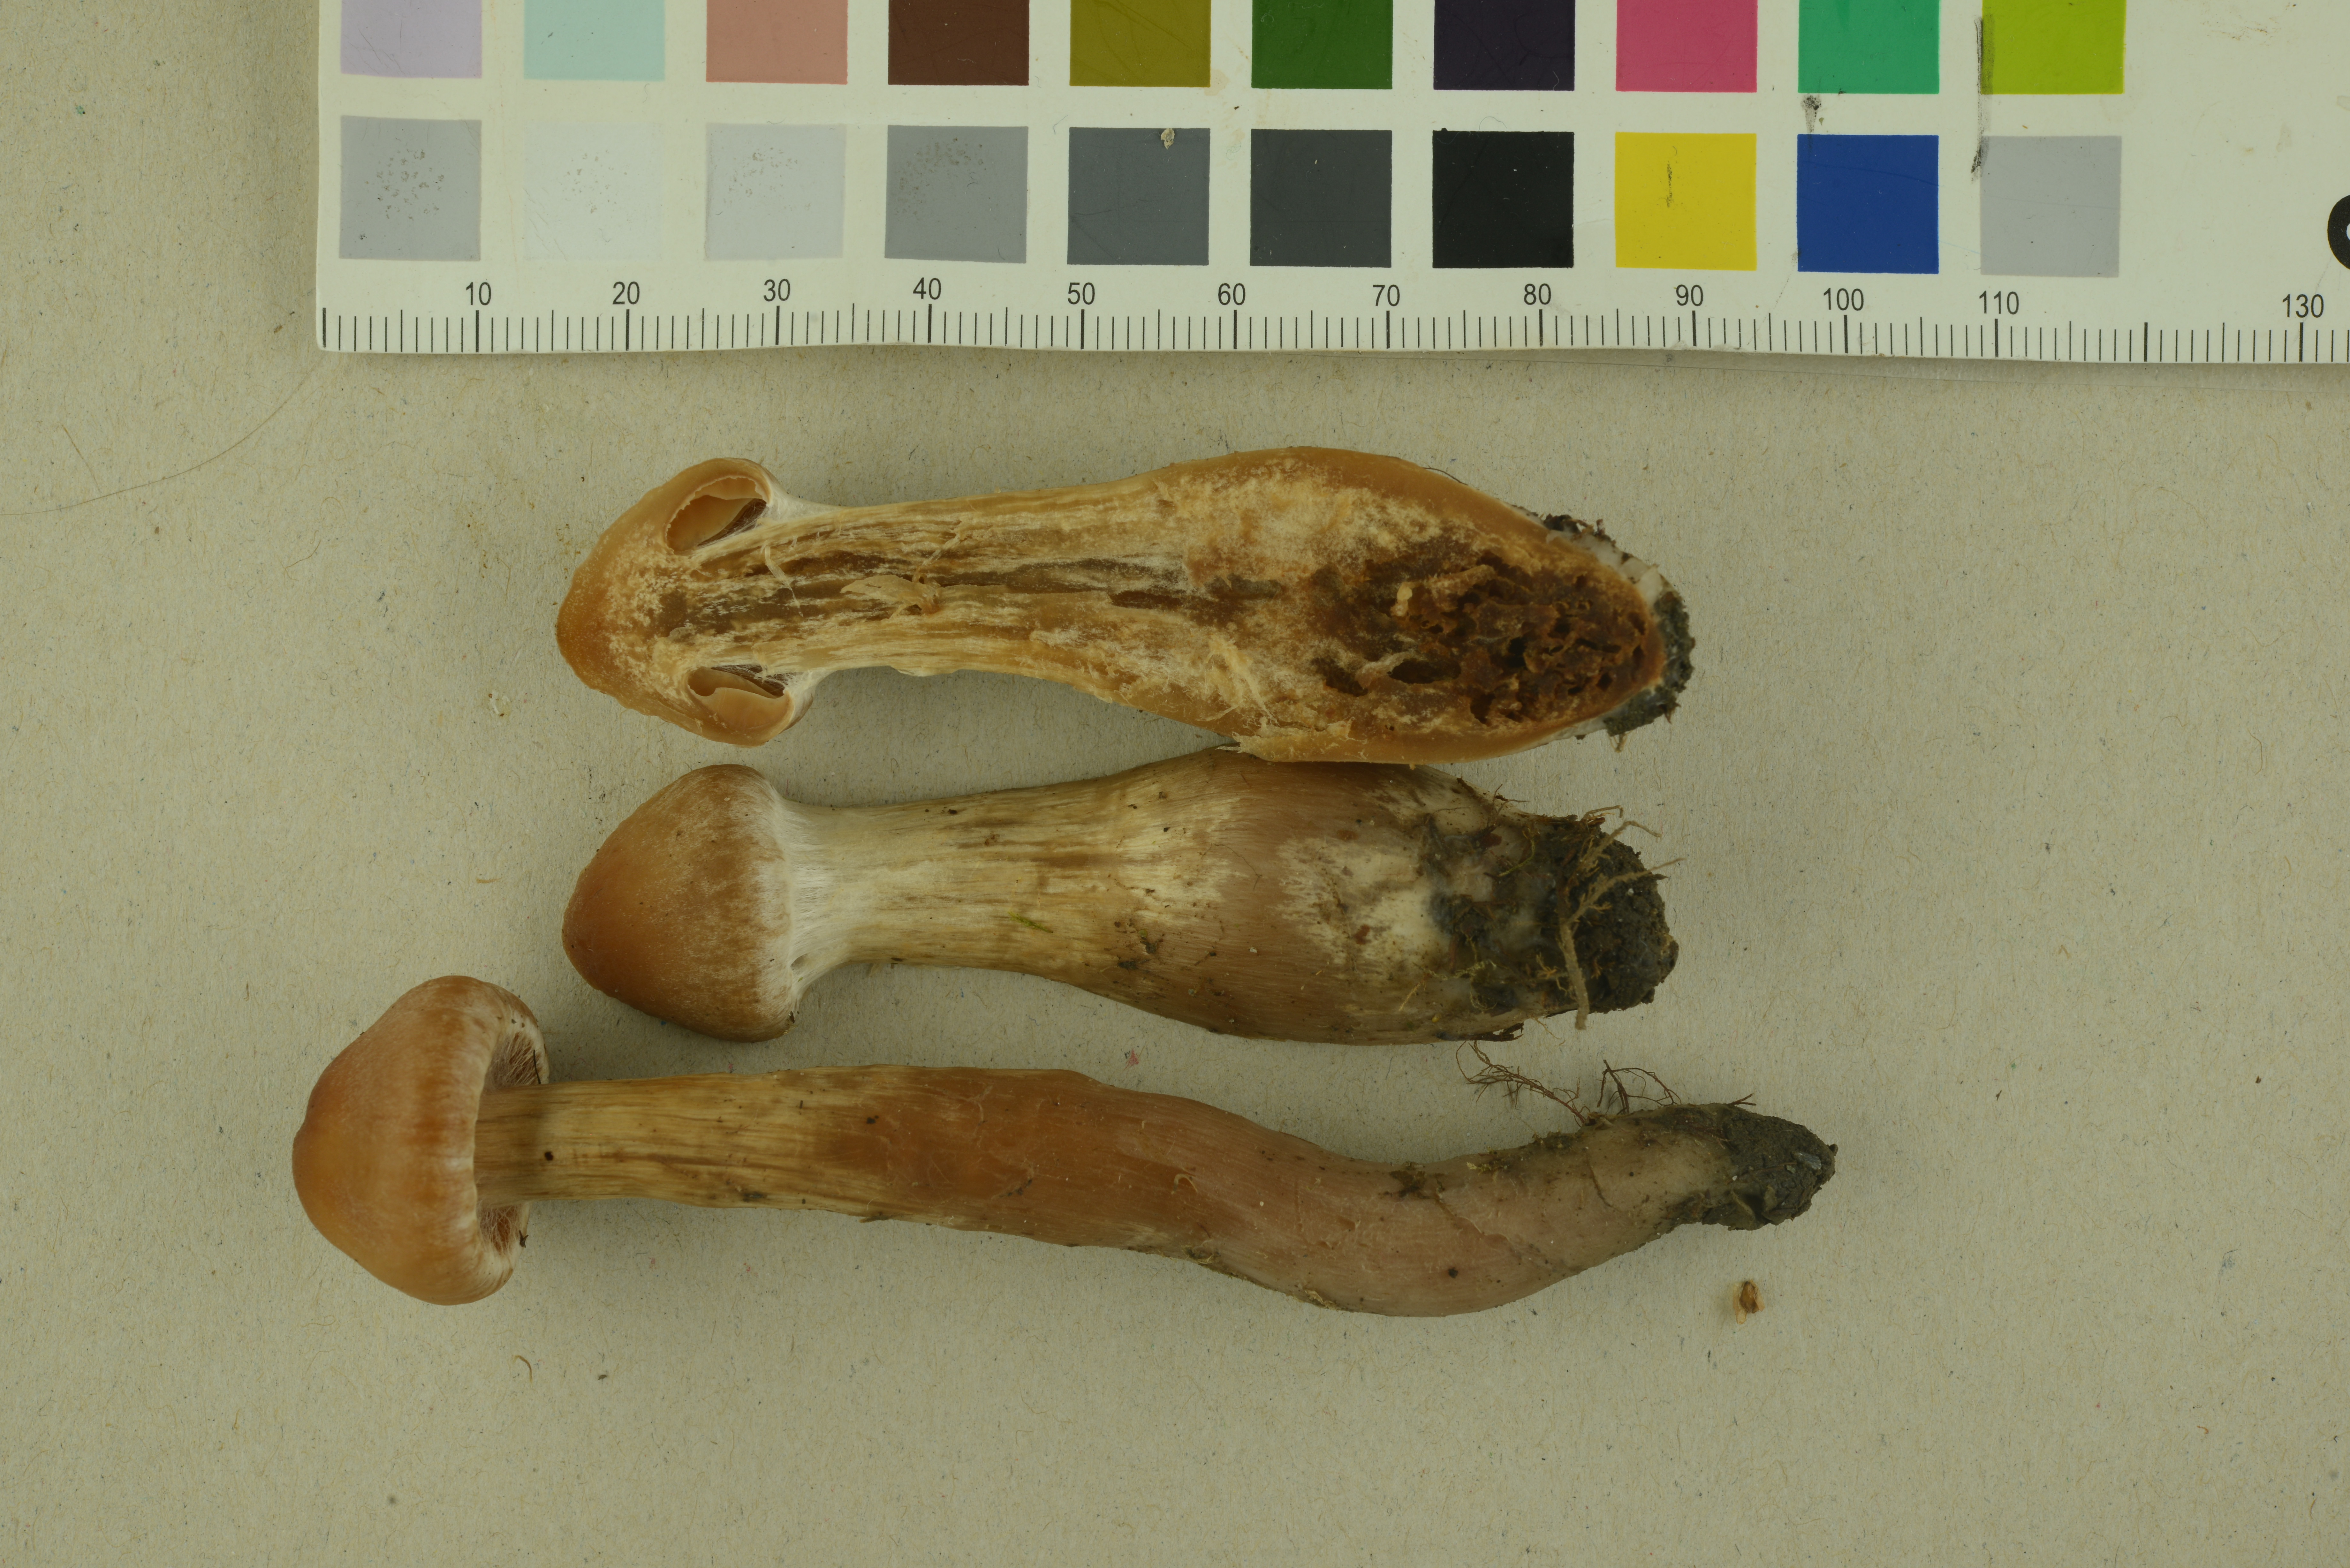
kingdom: Fungi
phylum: Basidiomycota
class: Agaricomycetes
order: Agaricales
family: Cortinariaceae
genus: Cortinarius
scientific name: Cortinarius hinnuleus
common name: Earthy webcap
